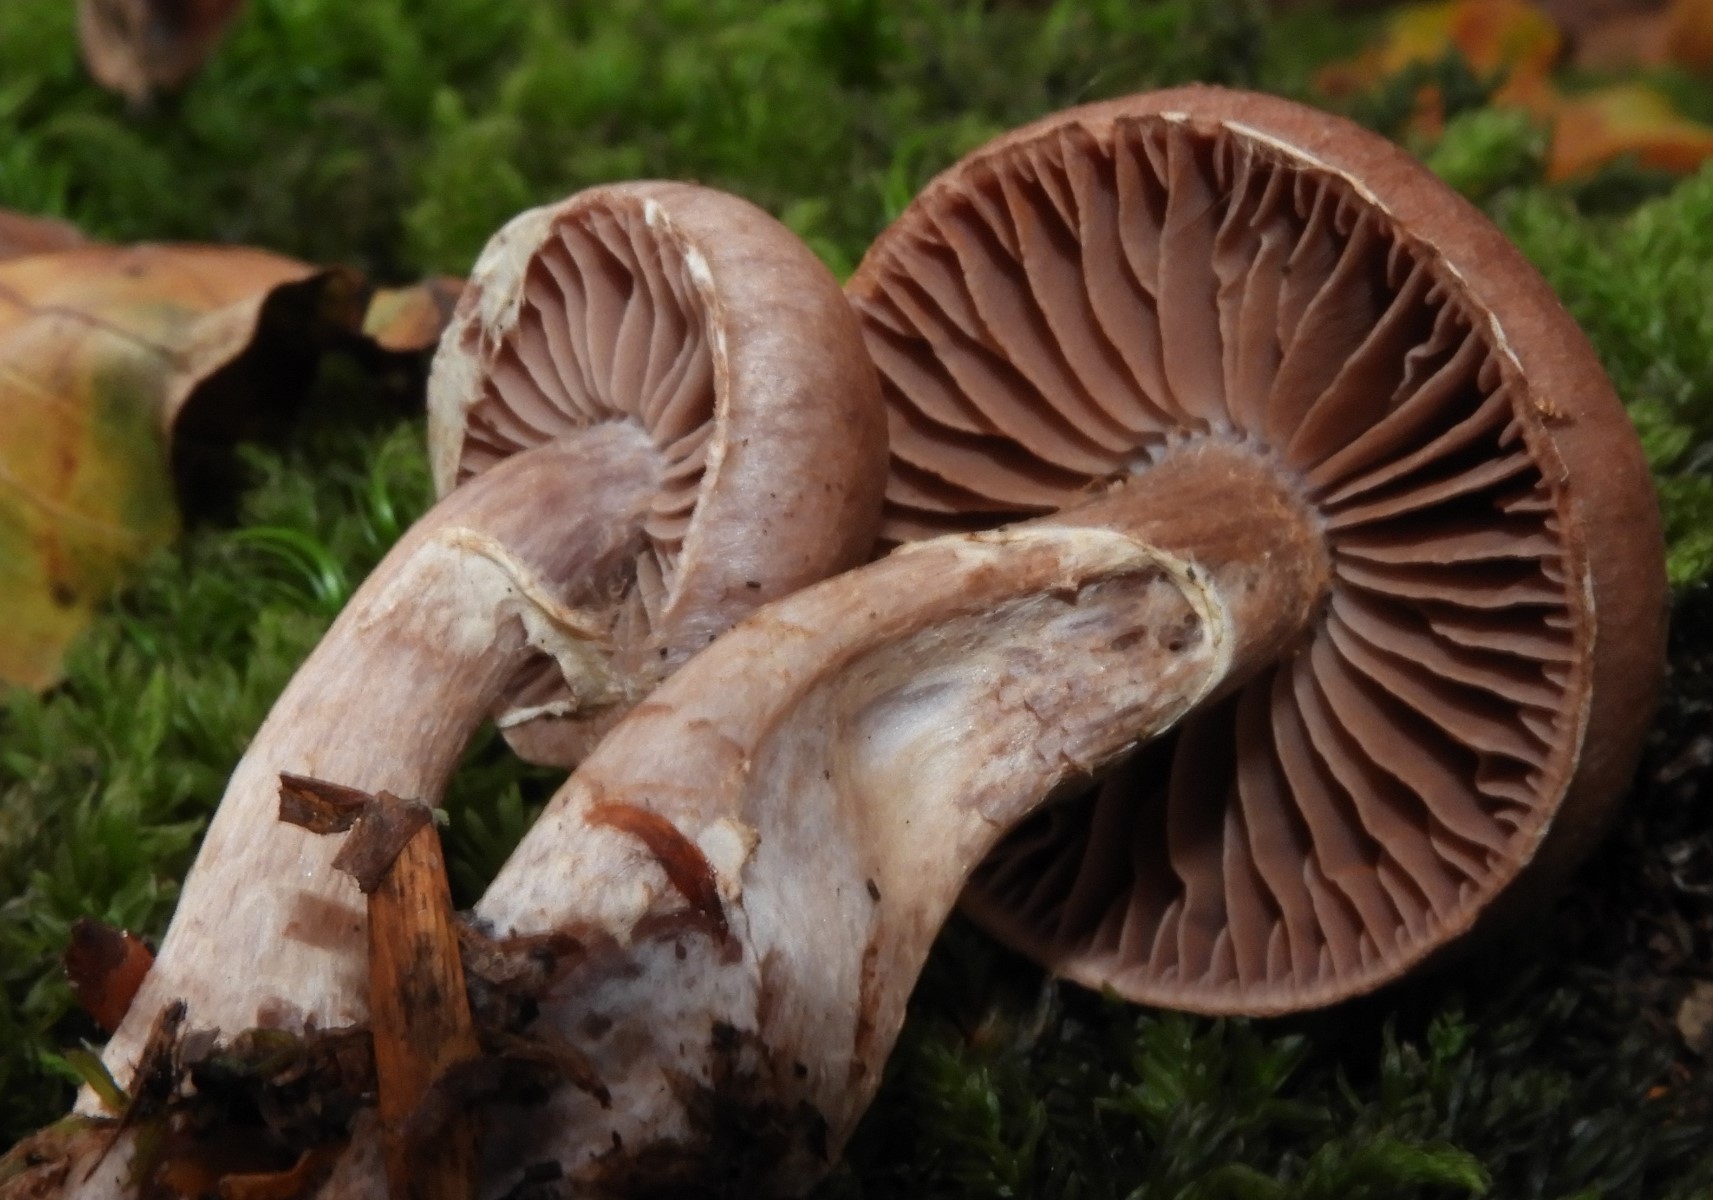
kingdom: Fungi
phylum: Basidiomycota
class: Agaricomycetes
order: Agaricales
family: Cortinariaceae
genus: Cortinarius
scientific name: Cortinarius torvus
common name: champignonagtig slørhat
